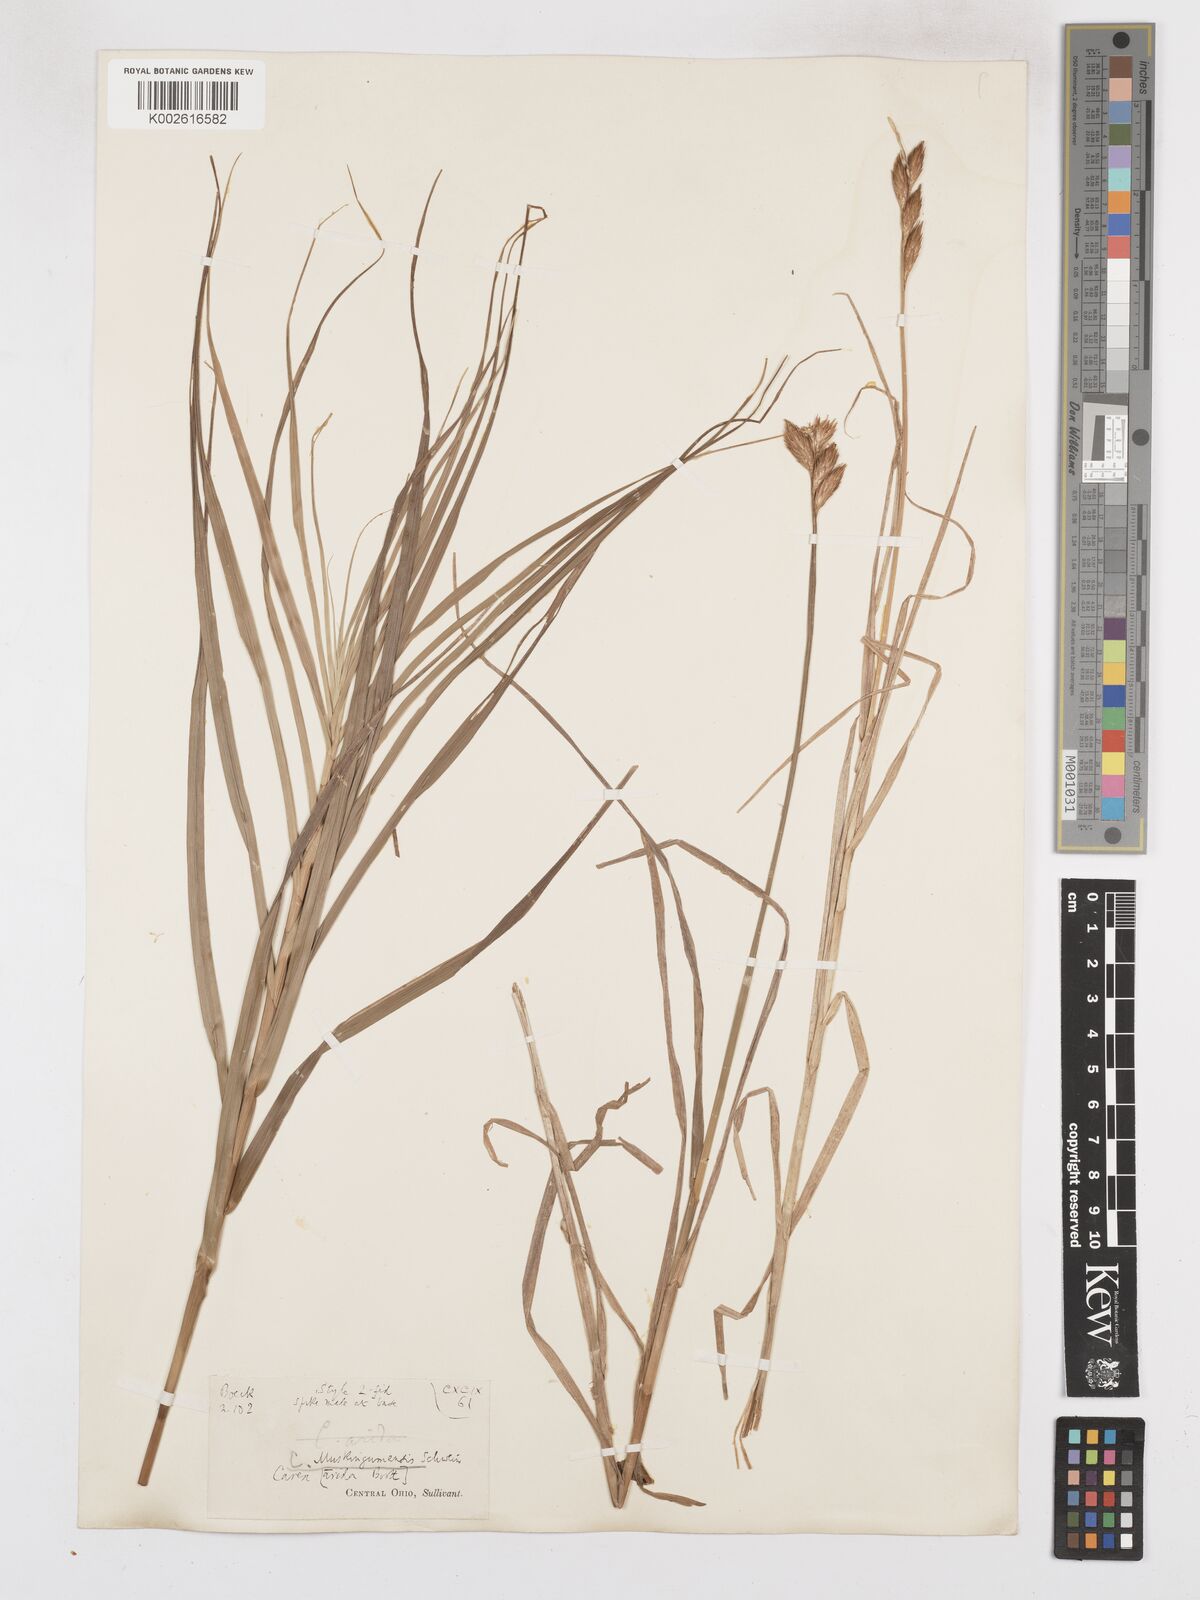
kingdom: Plantae
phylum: Tracheophyta
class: Liliopsida
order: Poales
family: Cyperaceae
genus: Carex
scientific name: Carex muskingumensis
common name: Muskingum sedge
